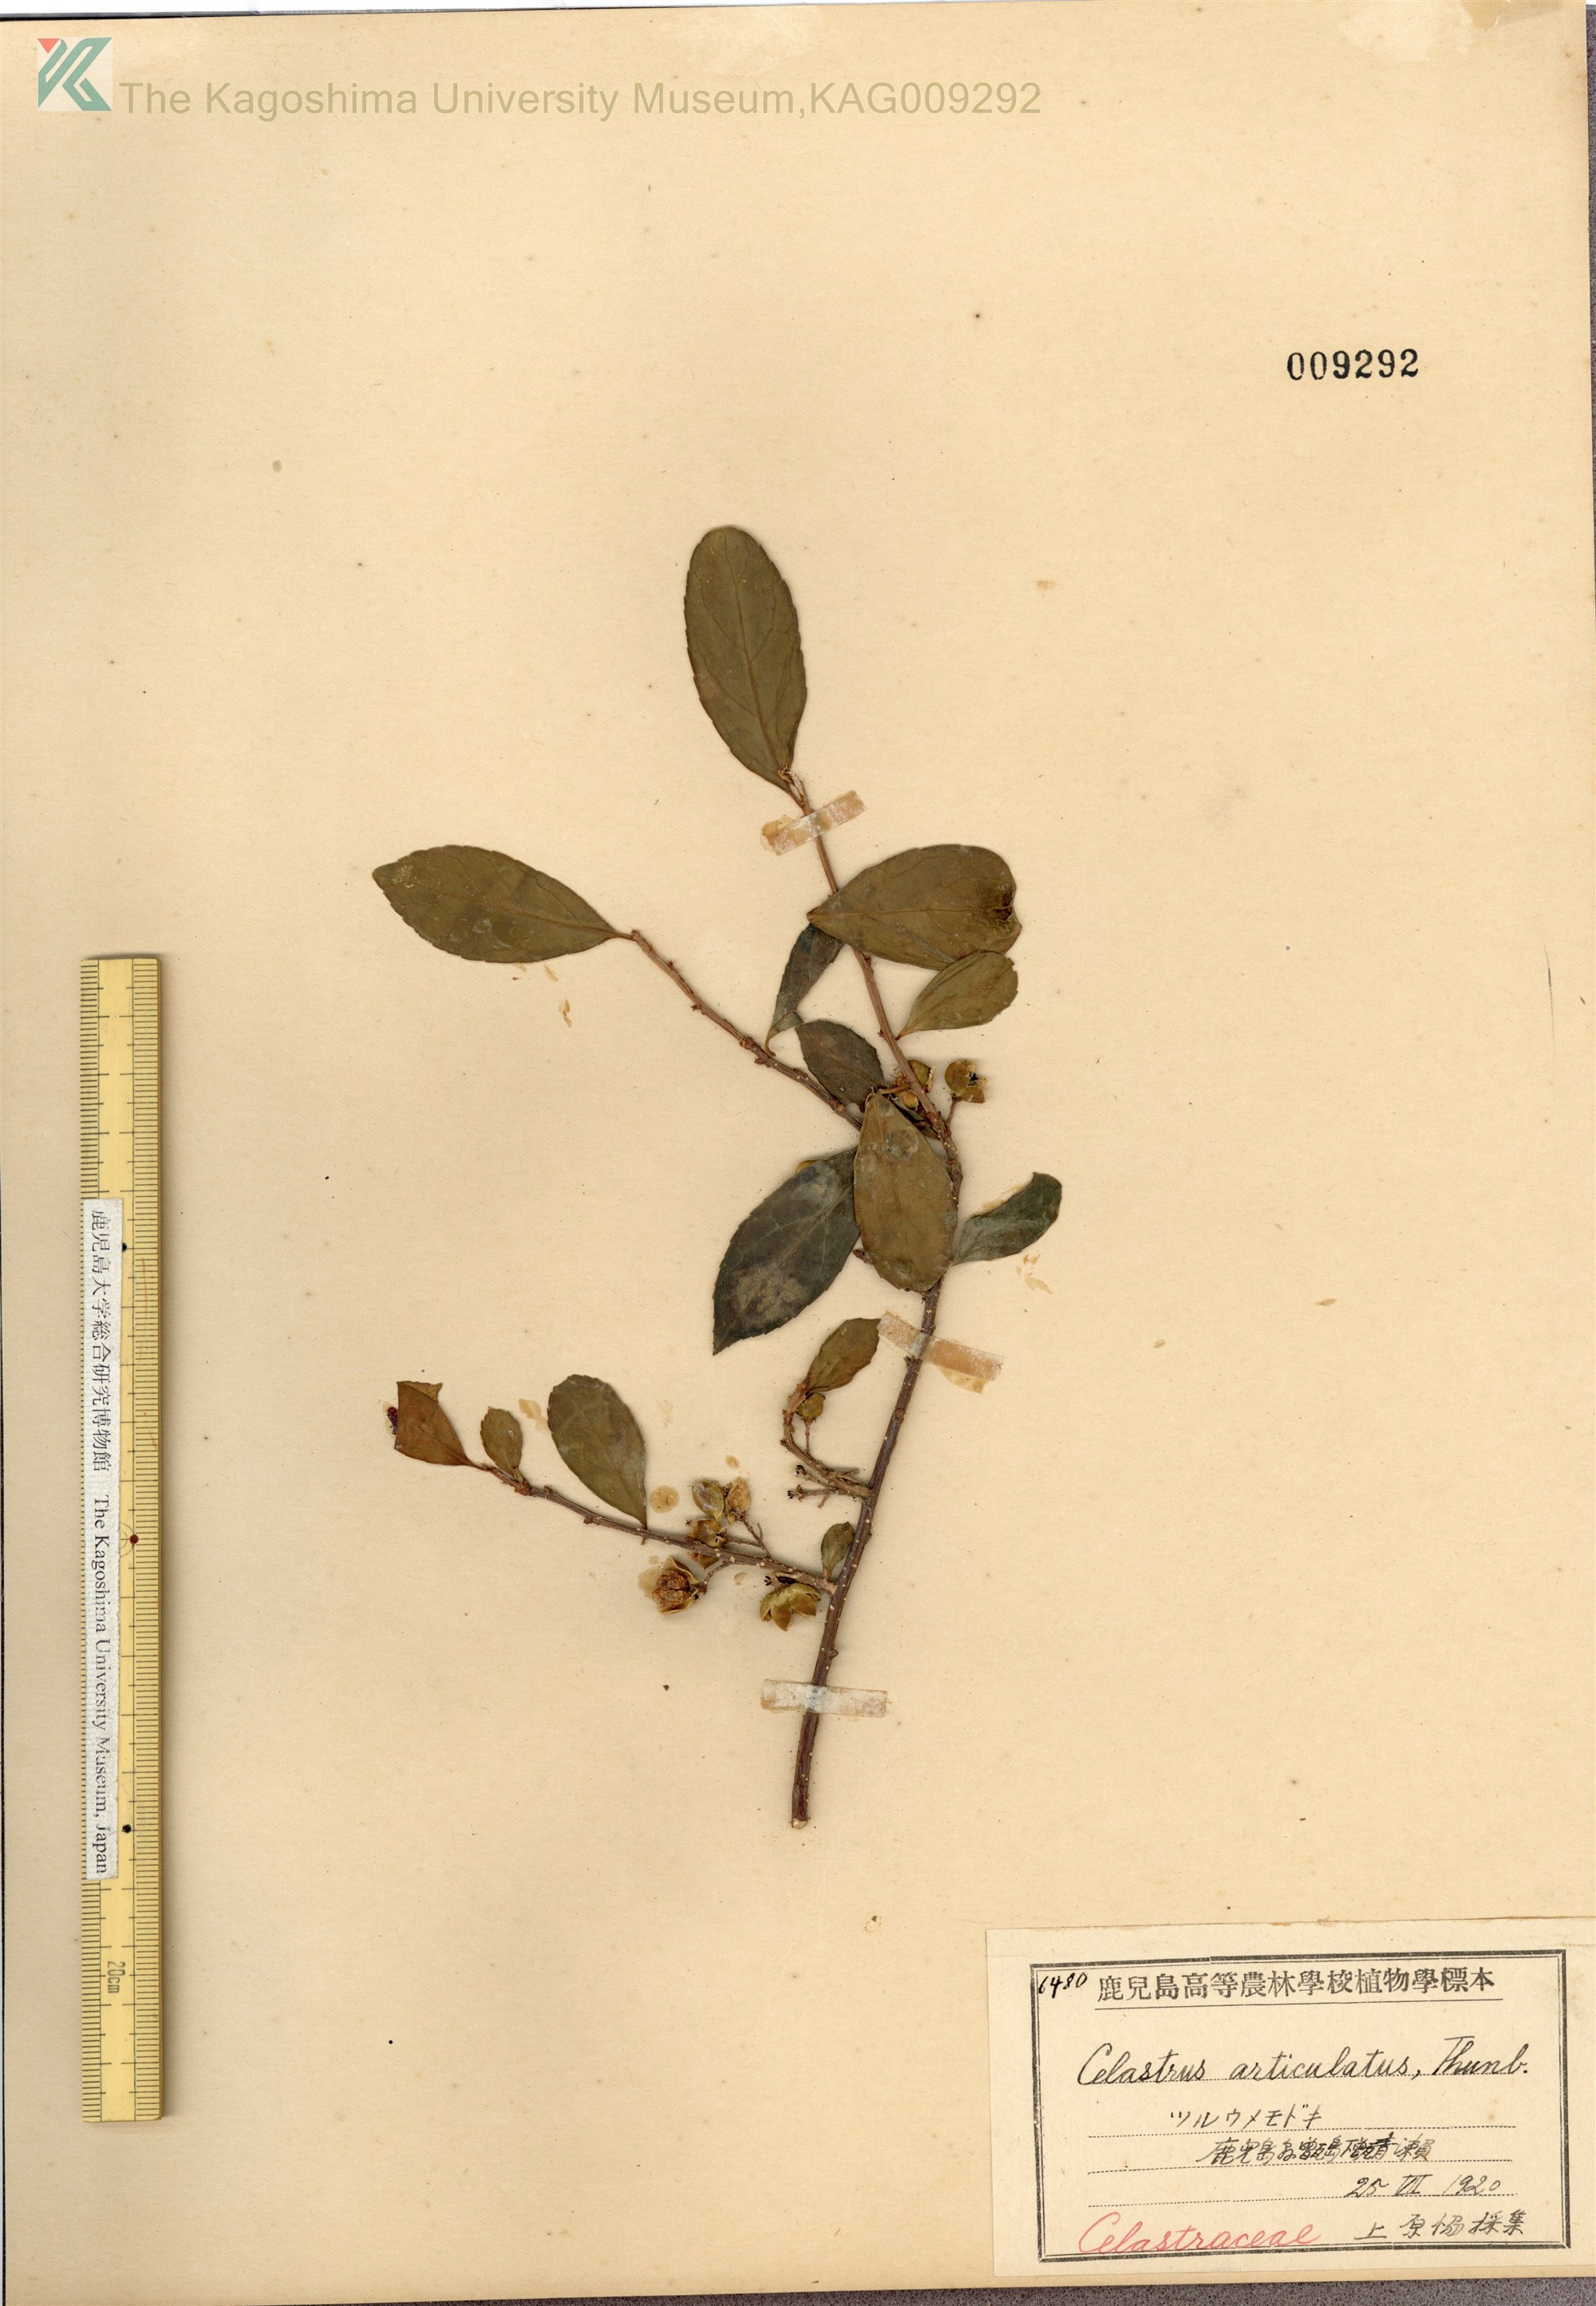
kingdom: Plantae
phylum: Tracheophyta
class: Magnoliopsida
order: Celastrales
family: Celastraceae
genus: Celastrus
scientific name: Celastrus punctatus
